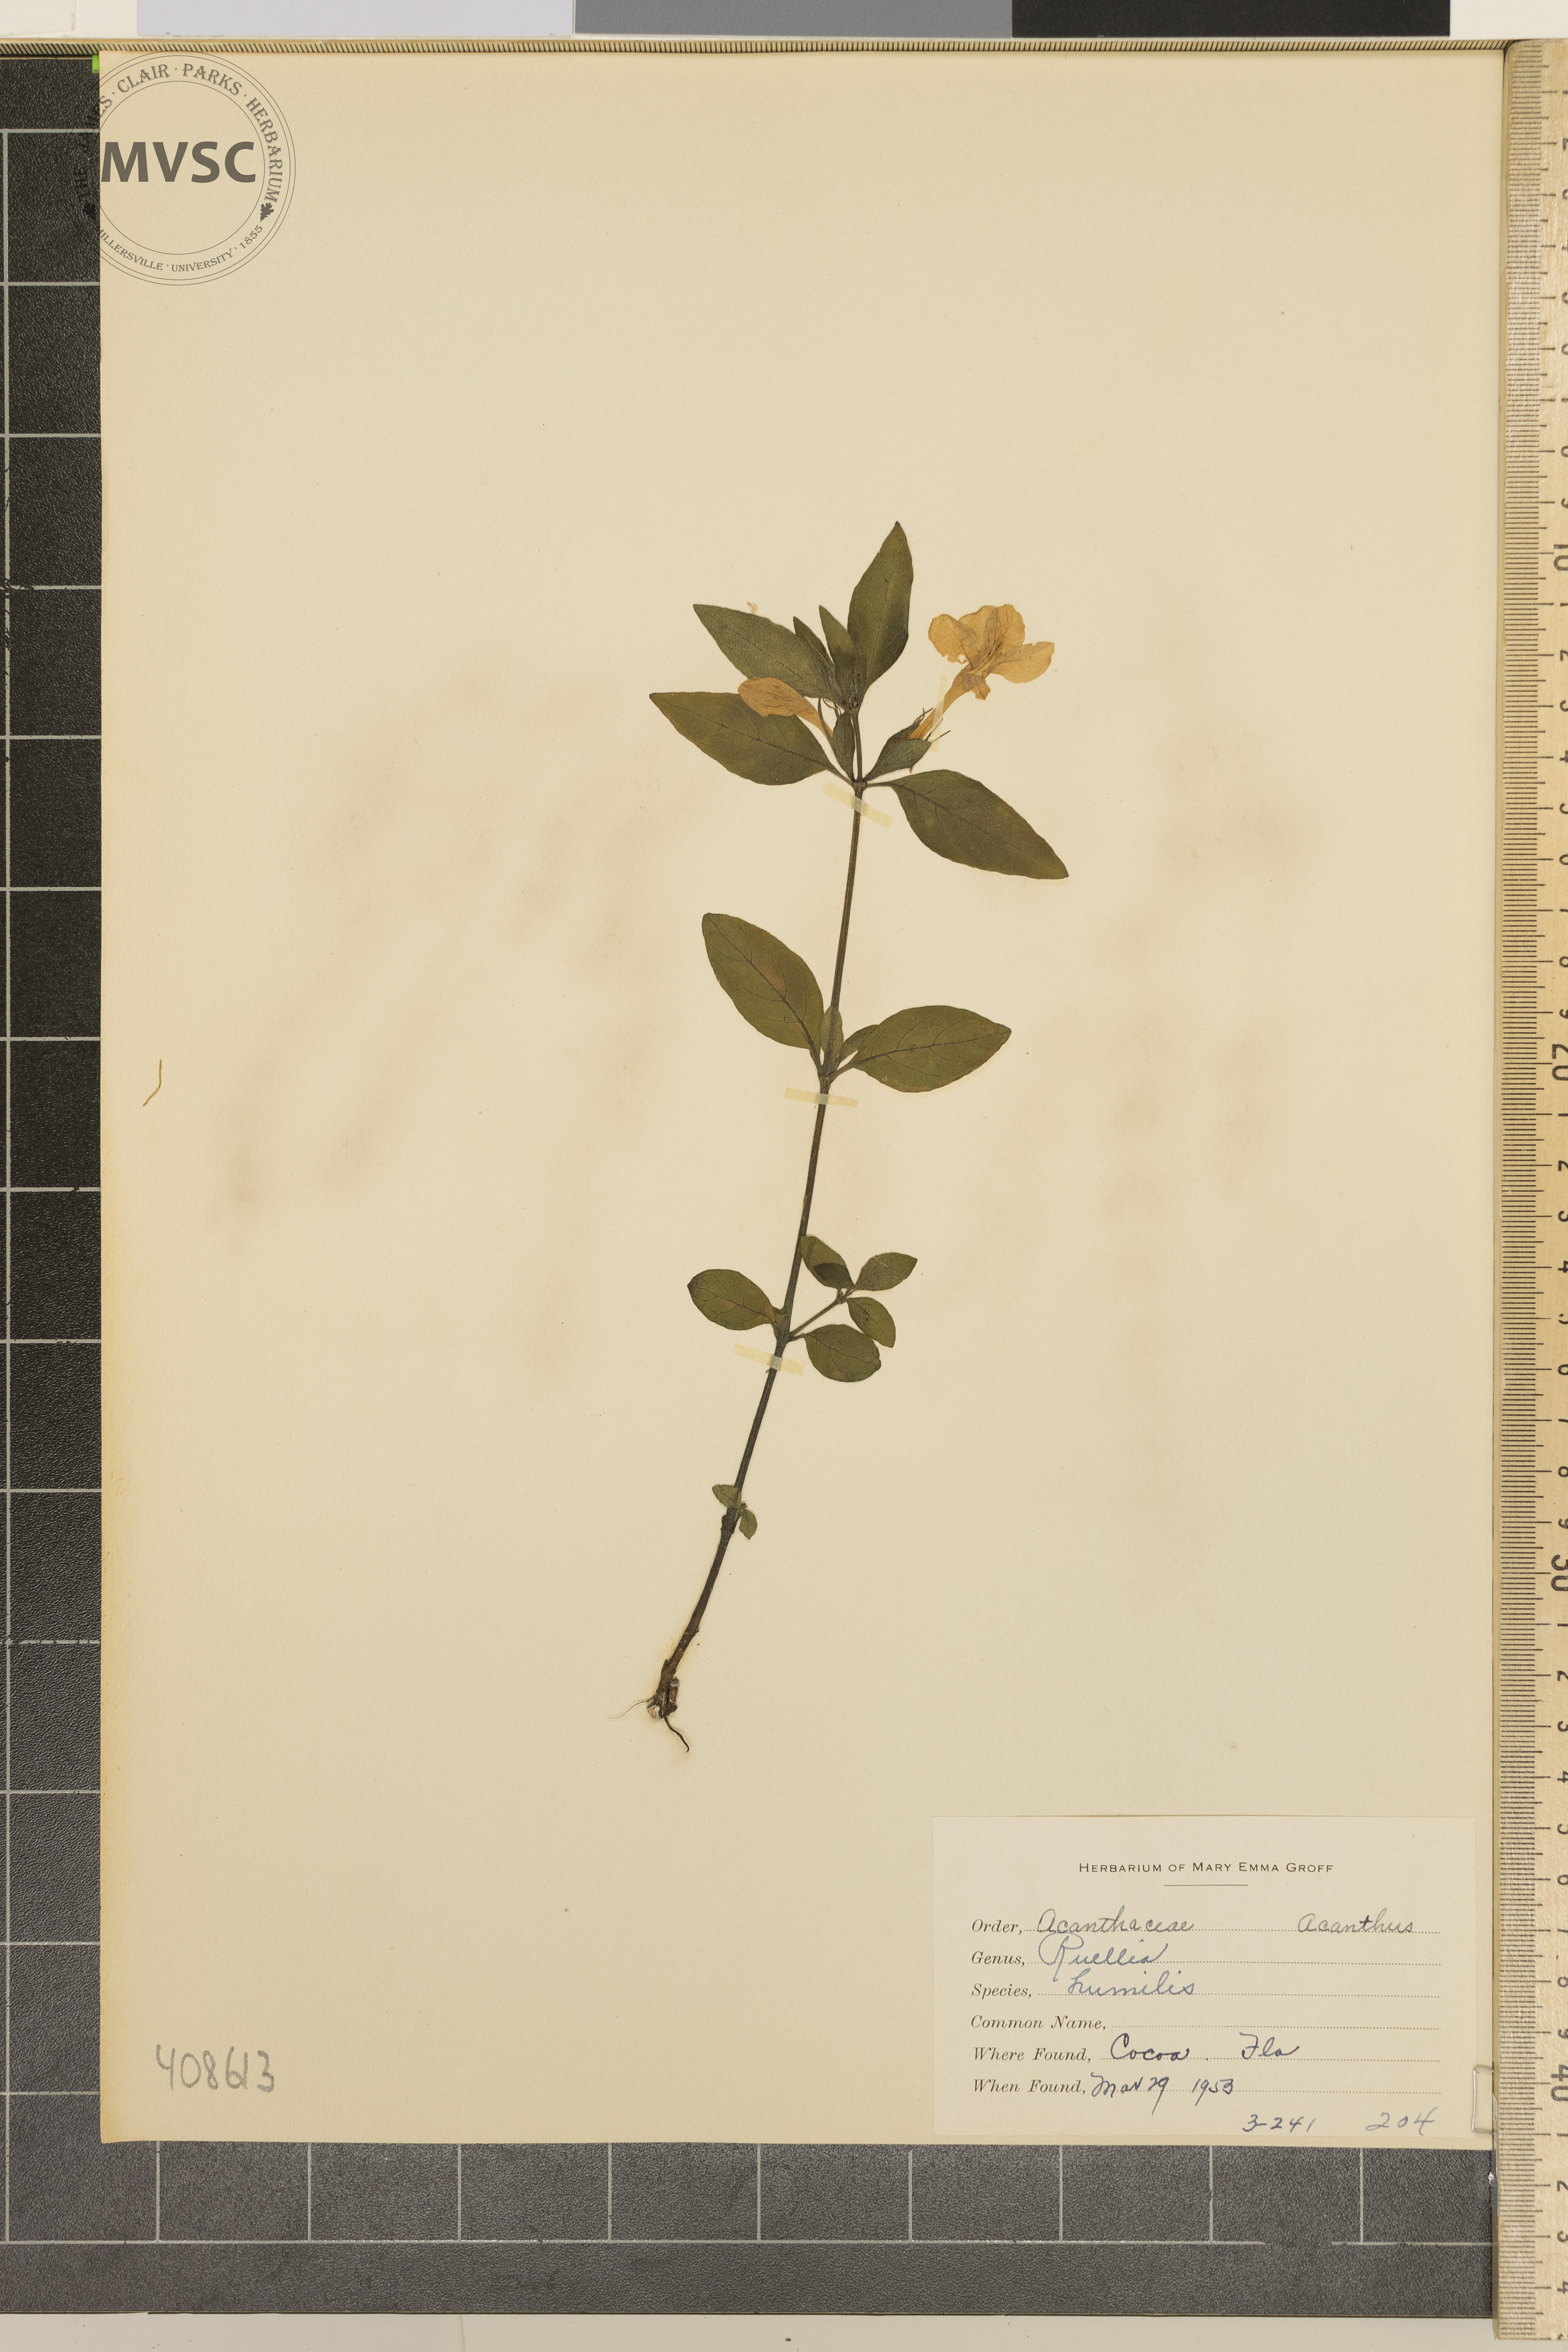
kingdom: Plantae
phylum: Tracheophyta
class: Magnoliopsida
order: Lamiales
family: Acanthaceae
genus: Ruellia
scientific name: Ruellia humilis
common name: Fringe-leaf ruellia
